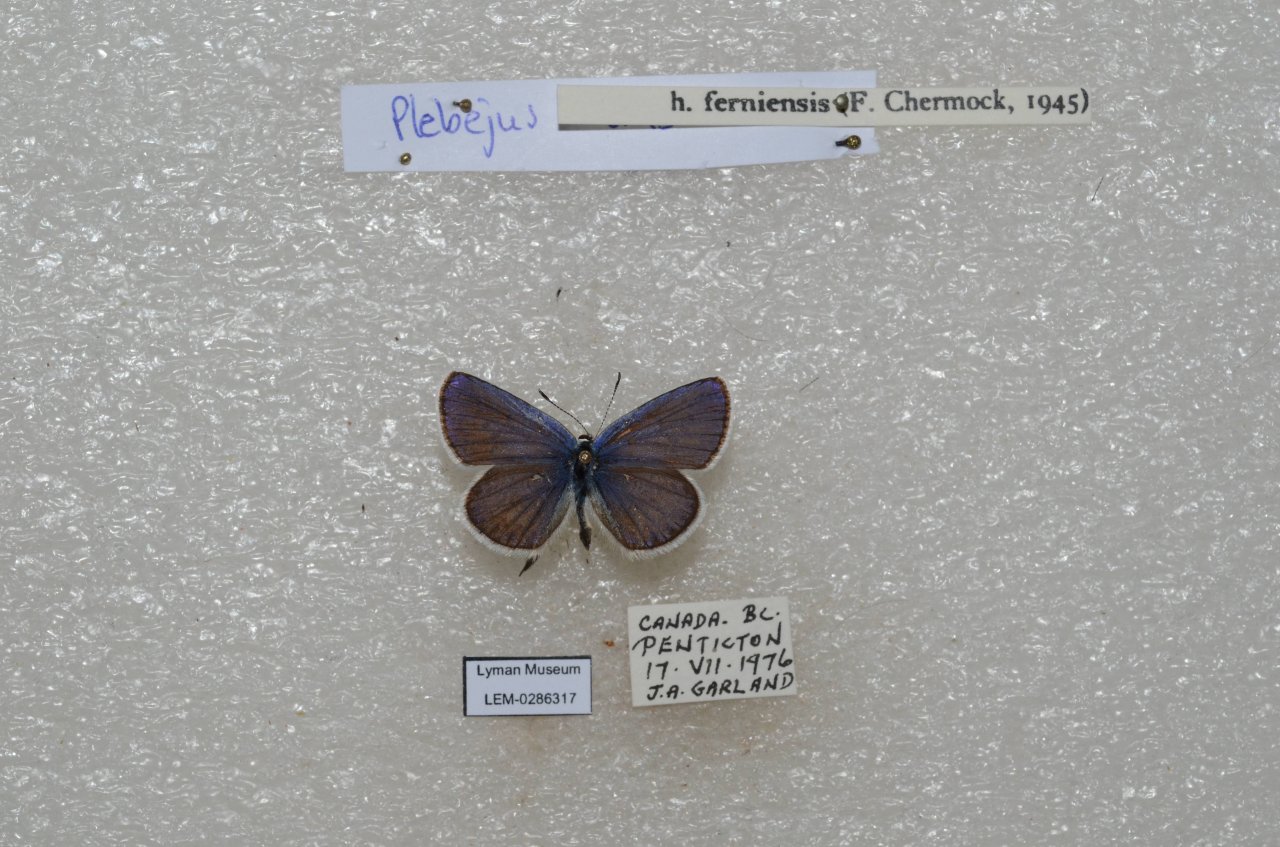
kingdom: Animalia
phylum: Arthropoda
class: Insecta
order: Lepidoptera
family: Lycaenidae
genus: Lycaeides
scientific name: Lycaeides idas
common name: Northern Blue
